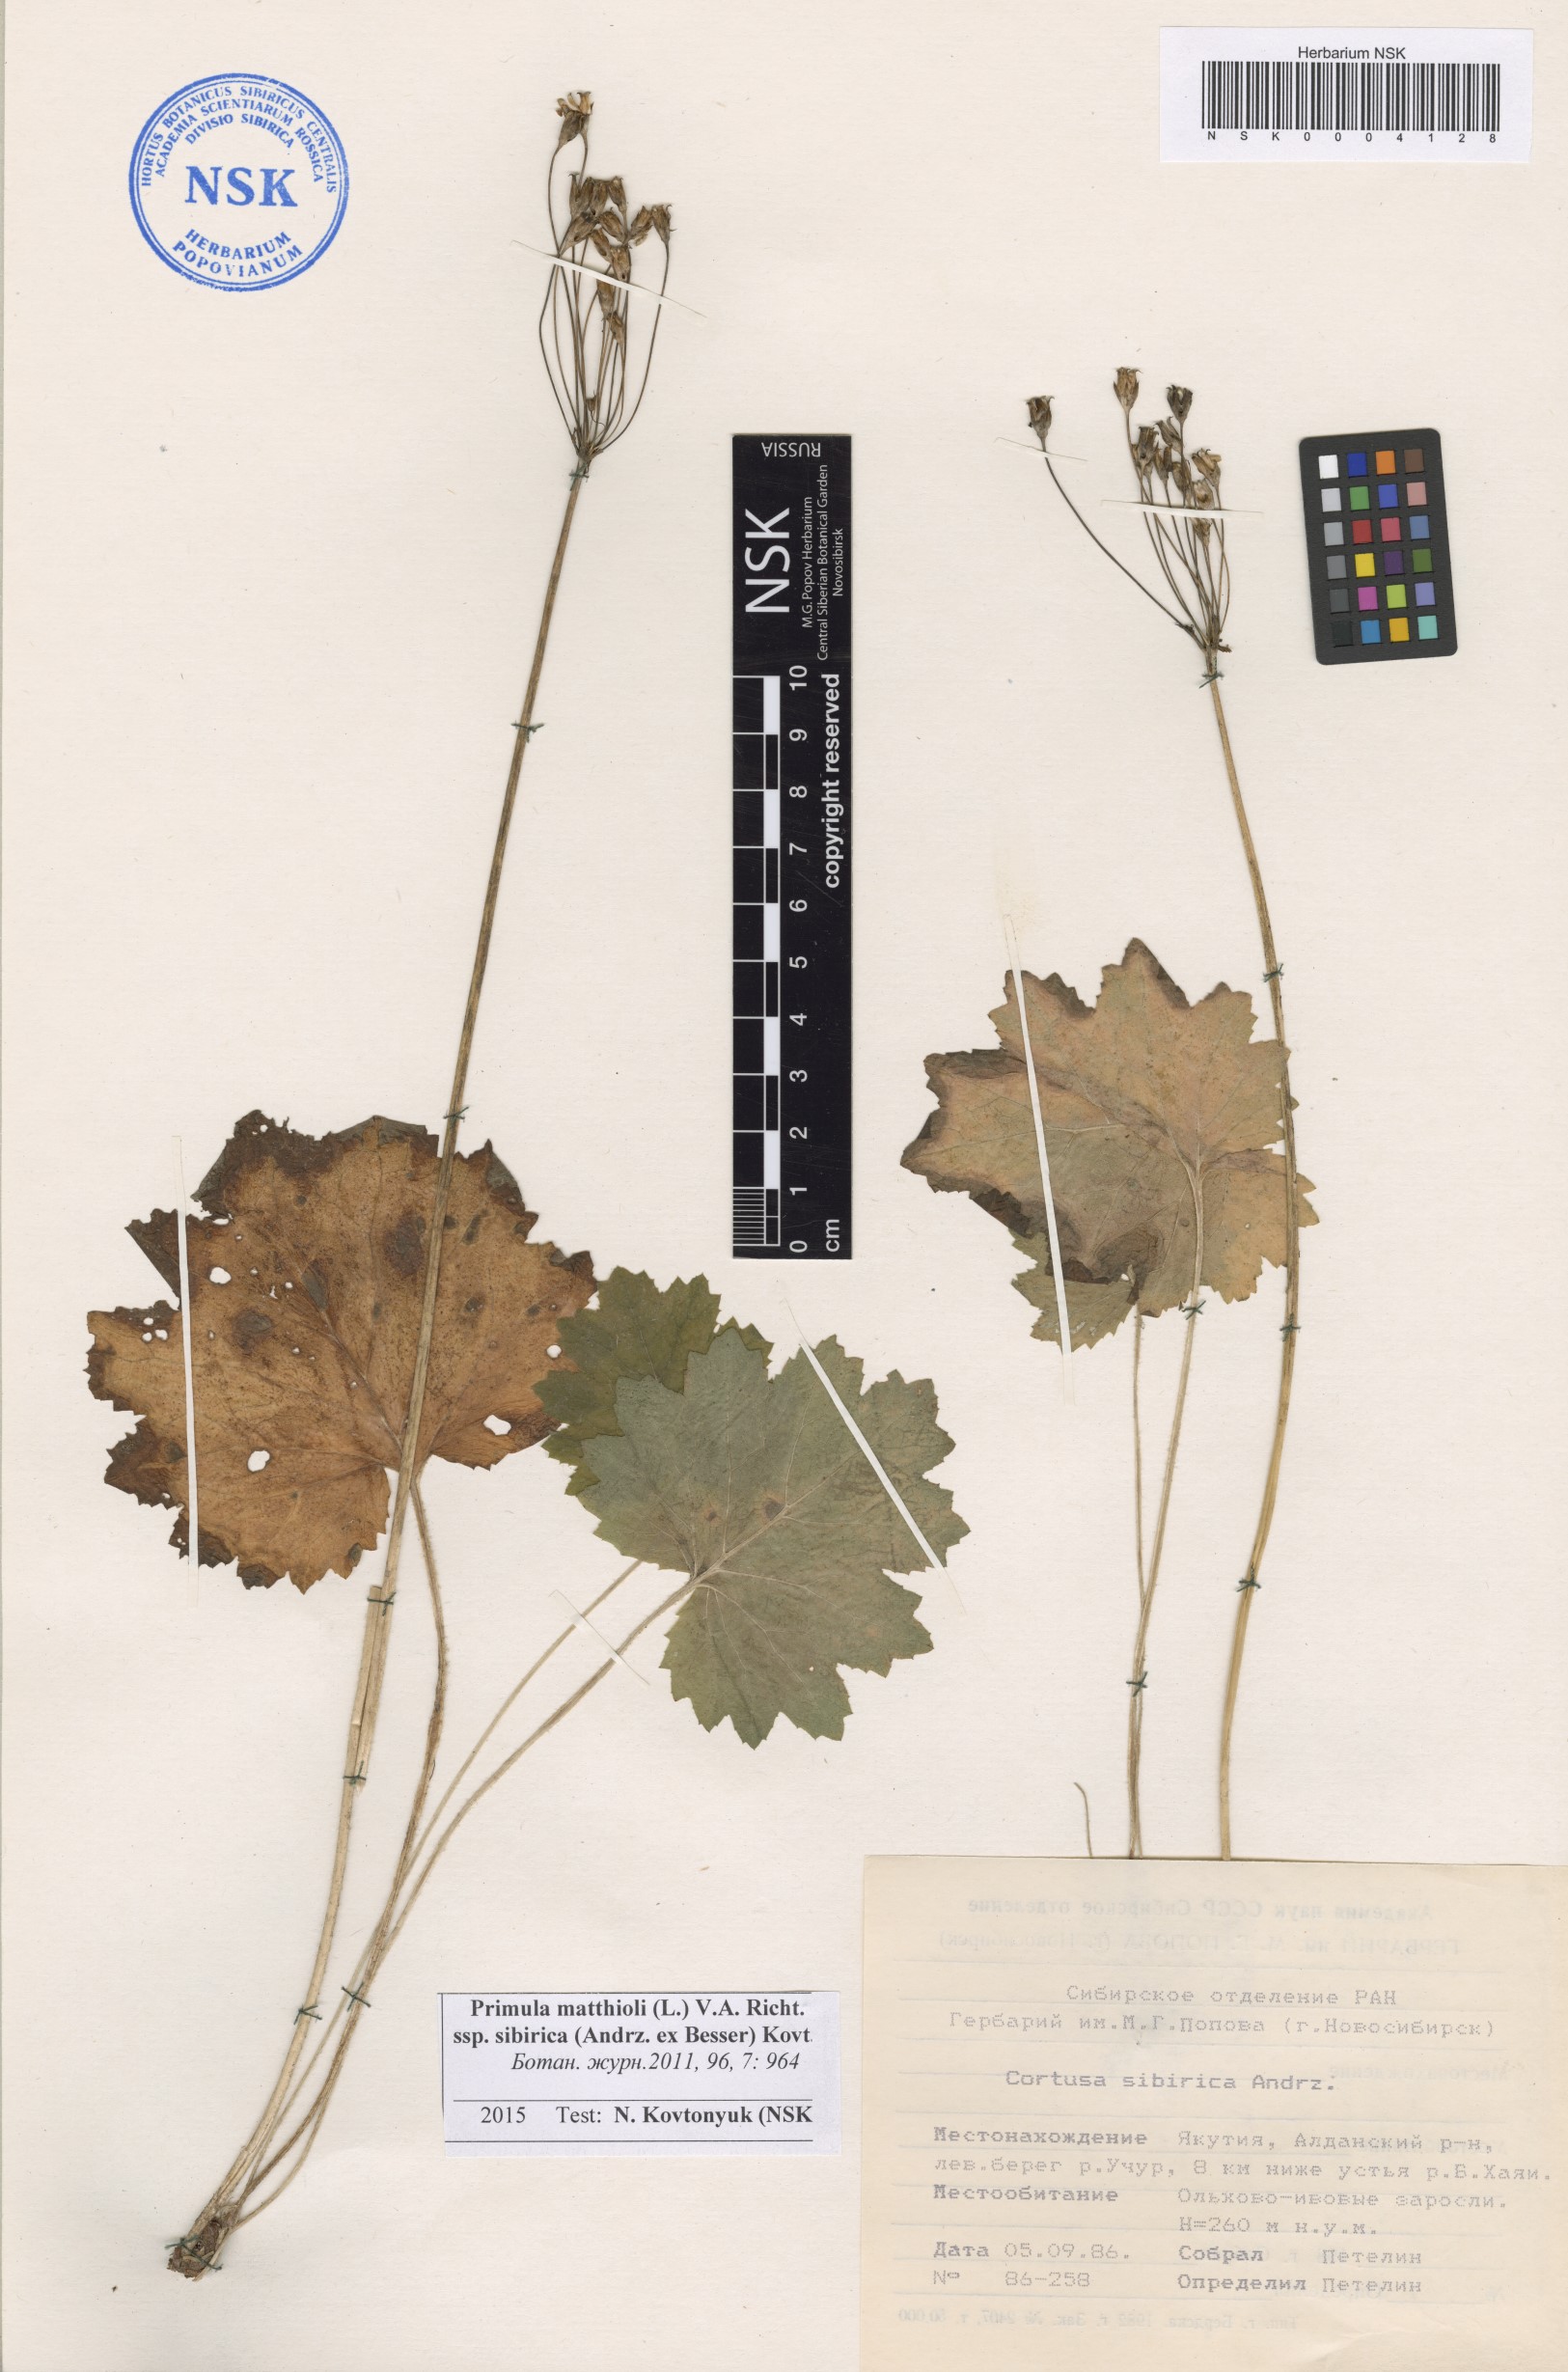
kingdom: Plantae
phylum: Tracheophyta
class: Magnoliopsida
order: Ericales
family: Primulaceae
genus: Primula
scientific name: Primula matthioli
